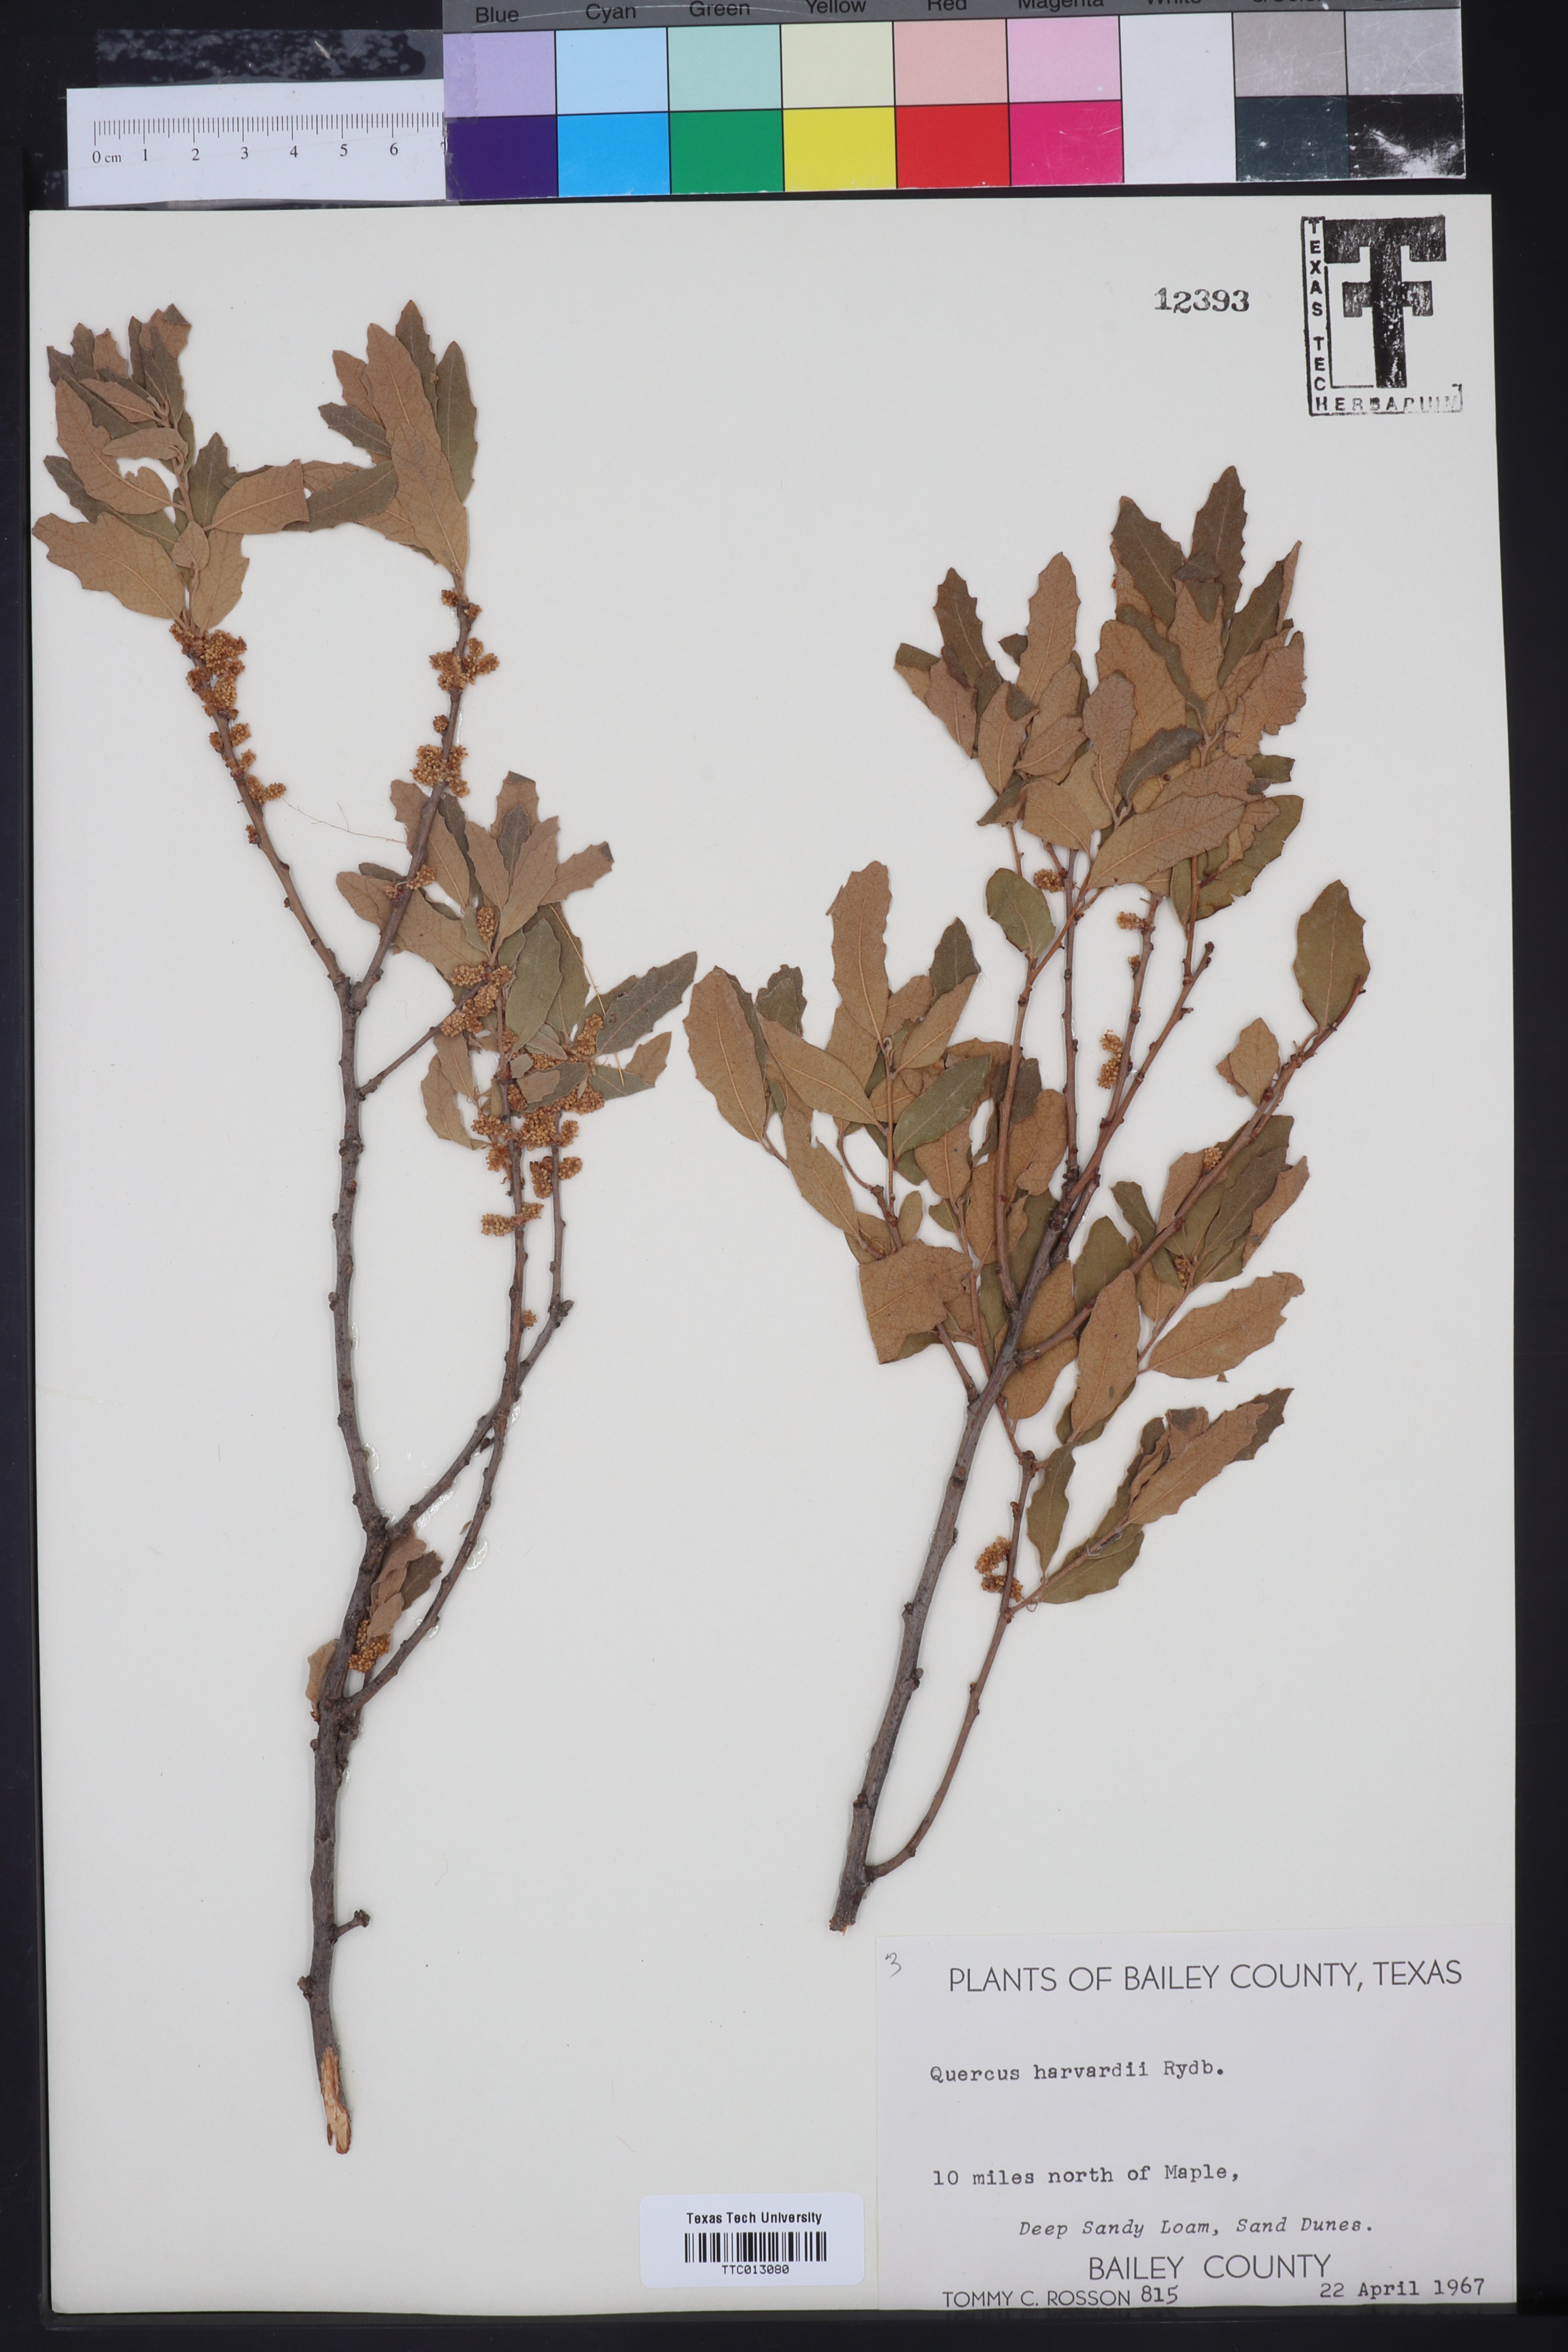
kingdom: Plantae
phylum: Tracheophyta
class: Magnoliopsida
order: Fagales
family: Fagaceae
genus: Quercus
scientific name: Quercus havardii
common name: Shinnery oak
